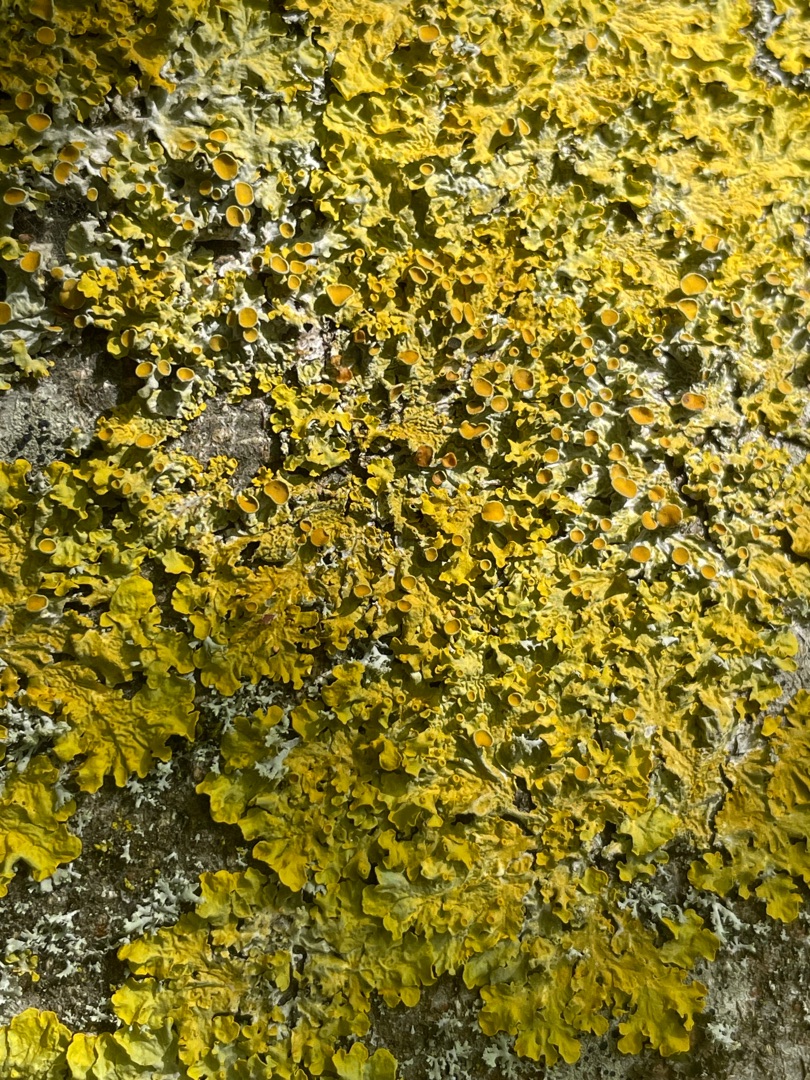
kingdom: Fungi
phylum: Ascomycota
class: Lecanoromycetes
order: Teloschistales
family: Teloschistaceae
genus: Xanthoria
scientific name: Xanthoria parietina
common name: Almindelig væggelav
